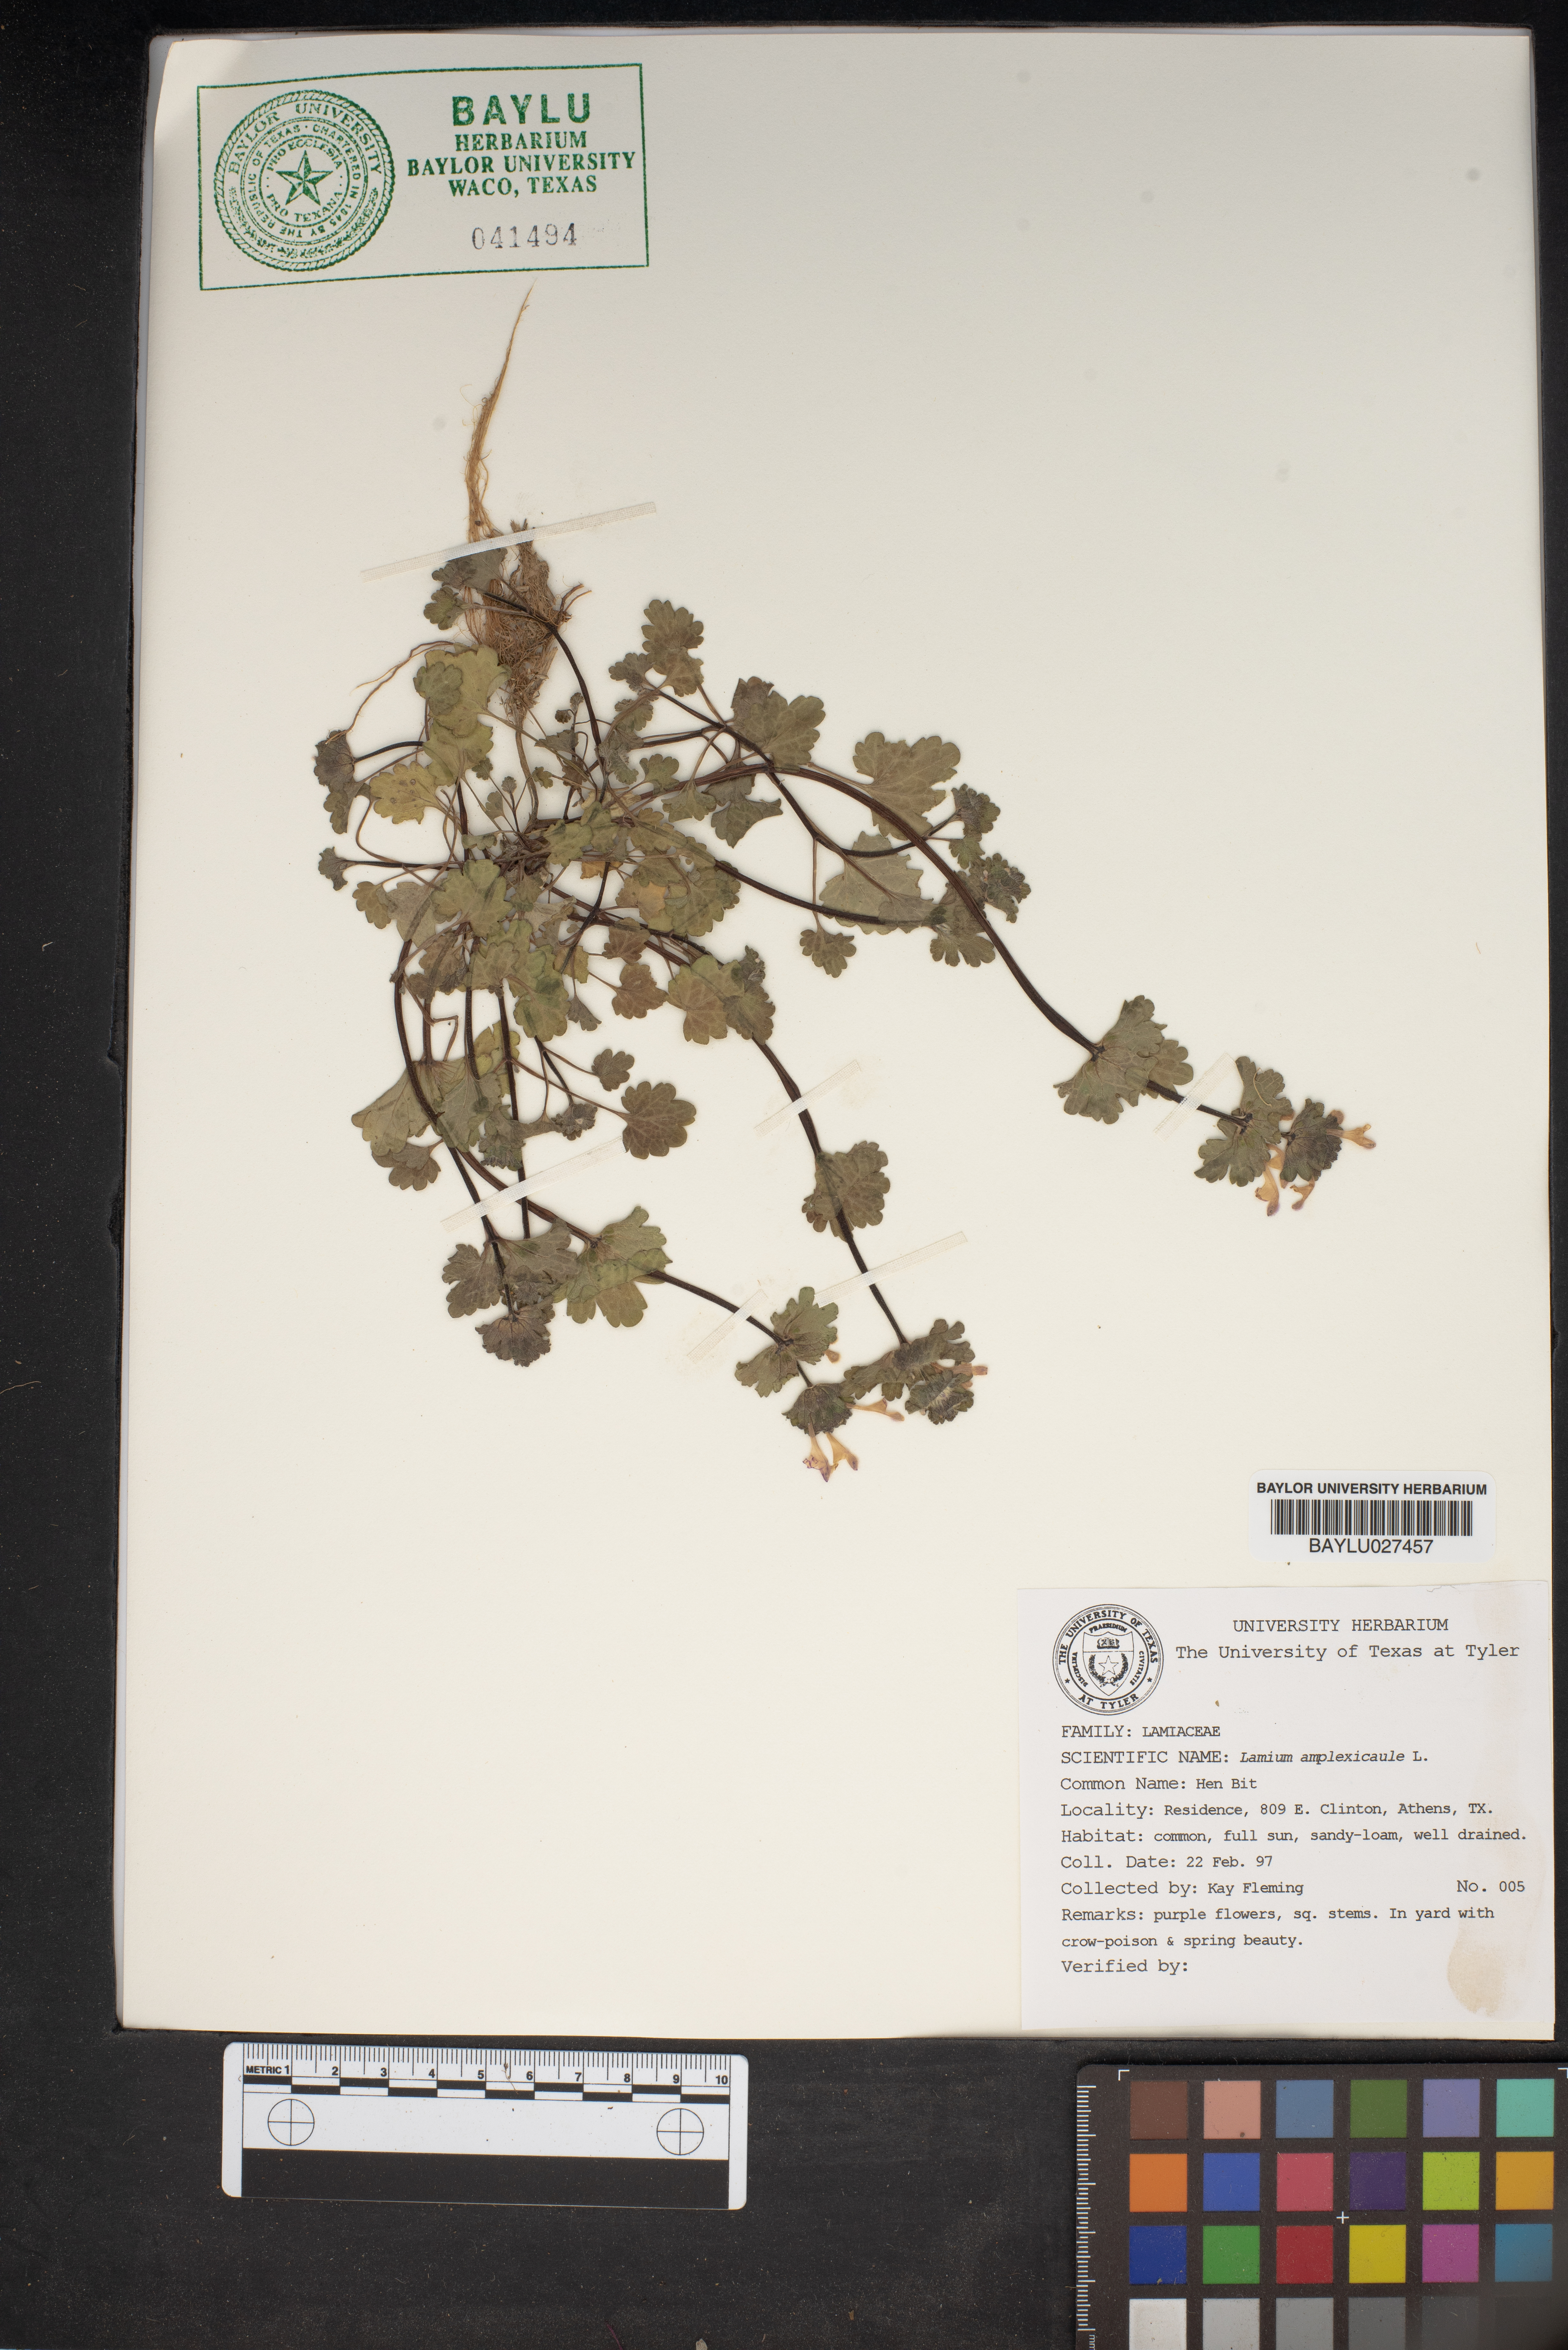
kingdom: Plantae
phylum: Tracheophyta
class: Magnoliopsida
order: Lamiales
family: Lamiaceae
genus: Lamium
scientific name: Lamium amplexicaule
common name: Henbit dead-nettle
